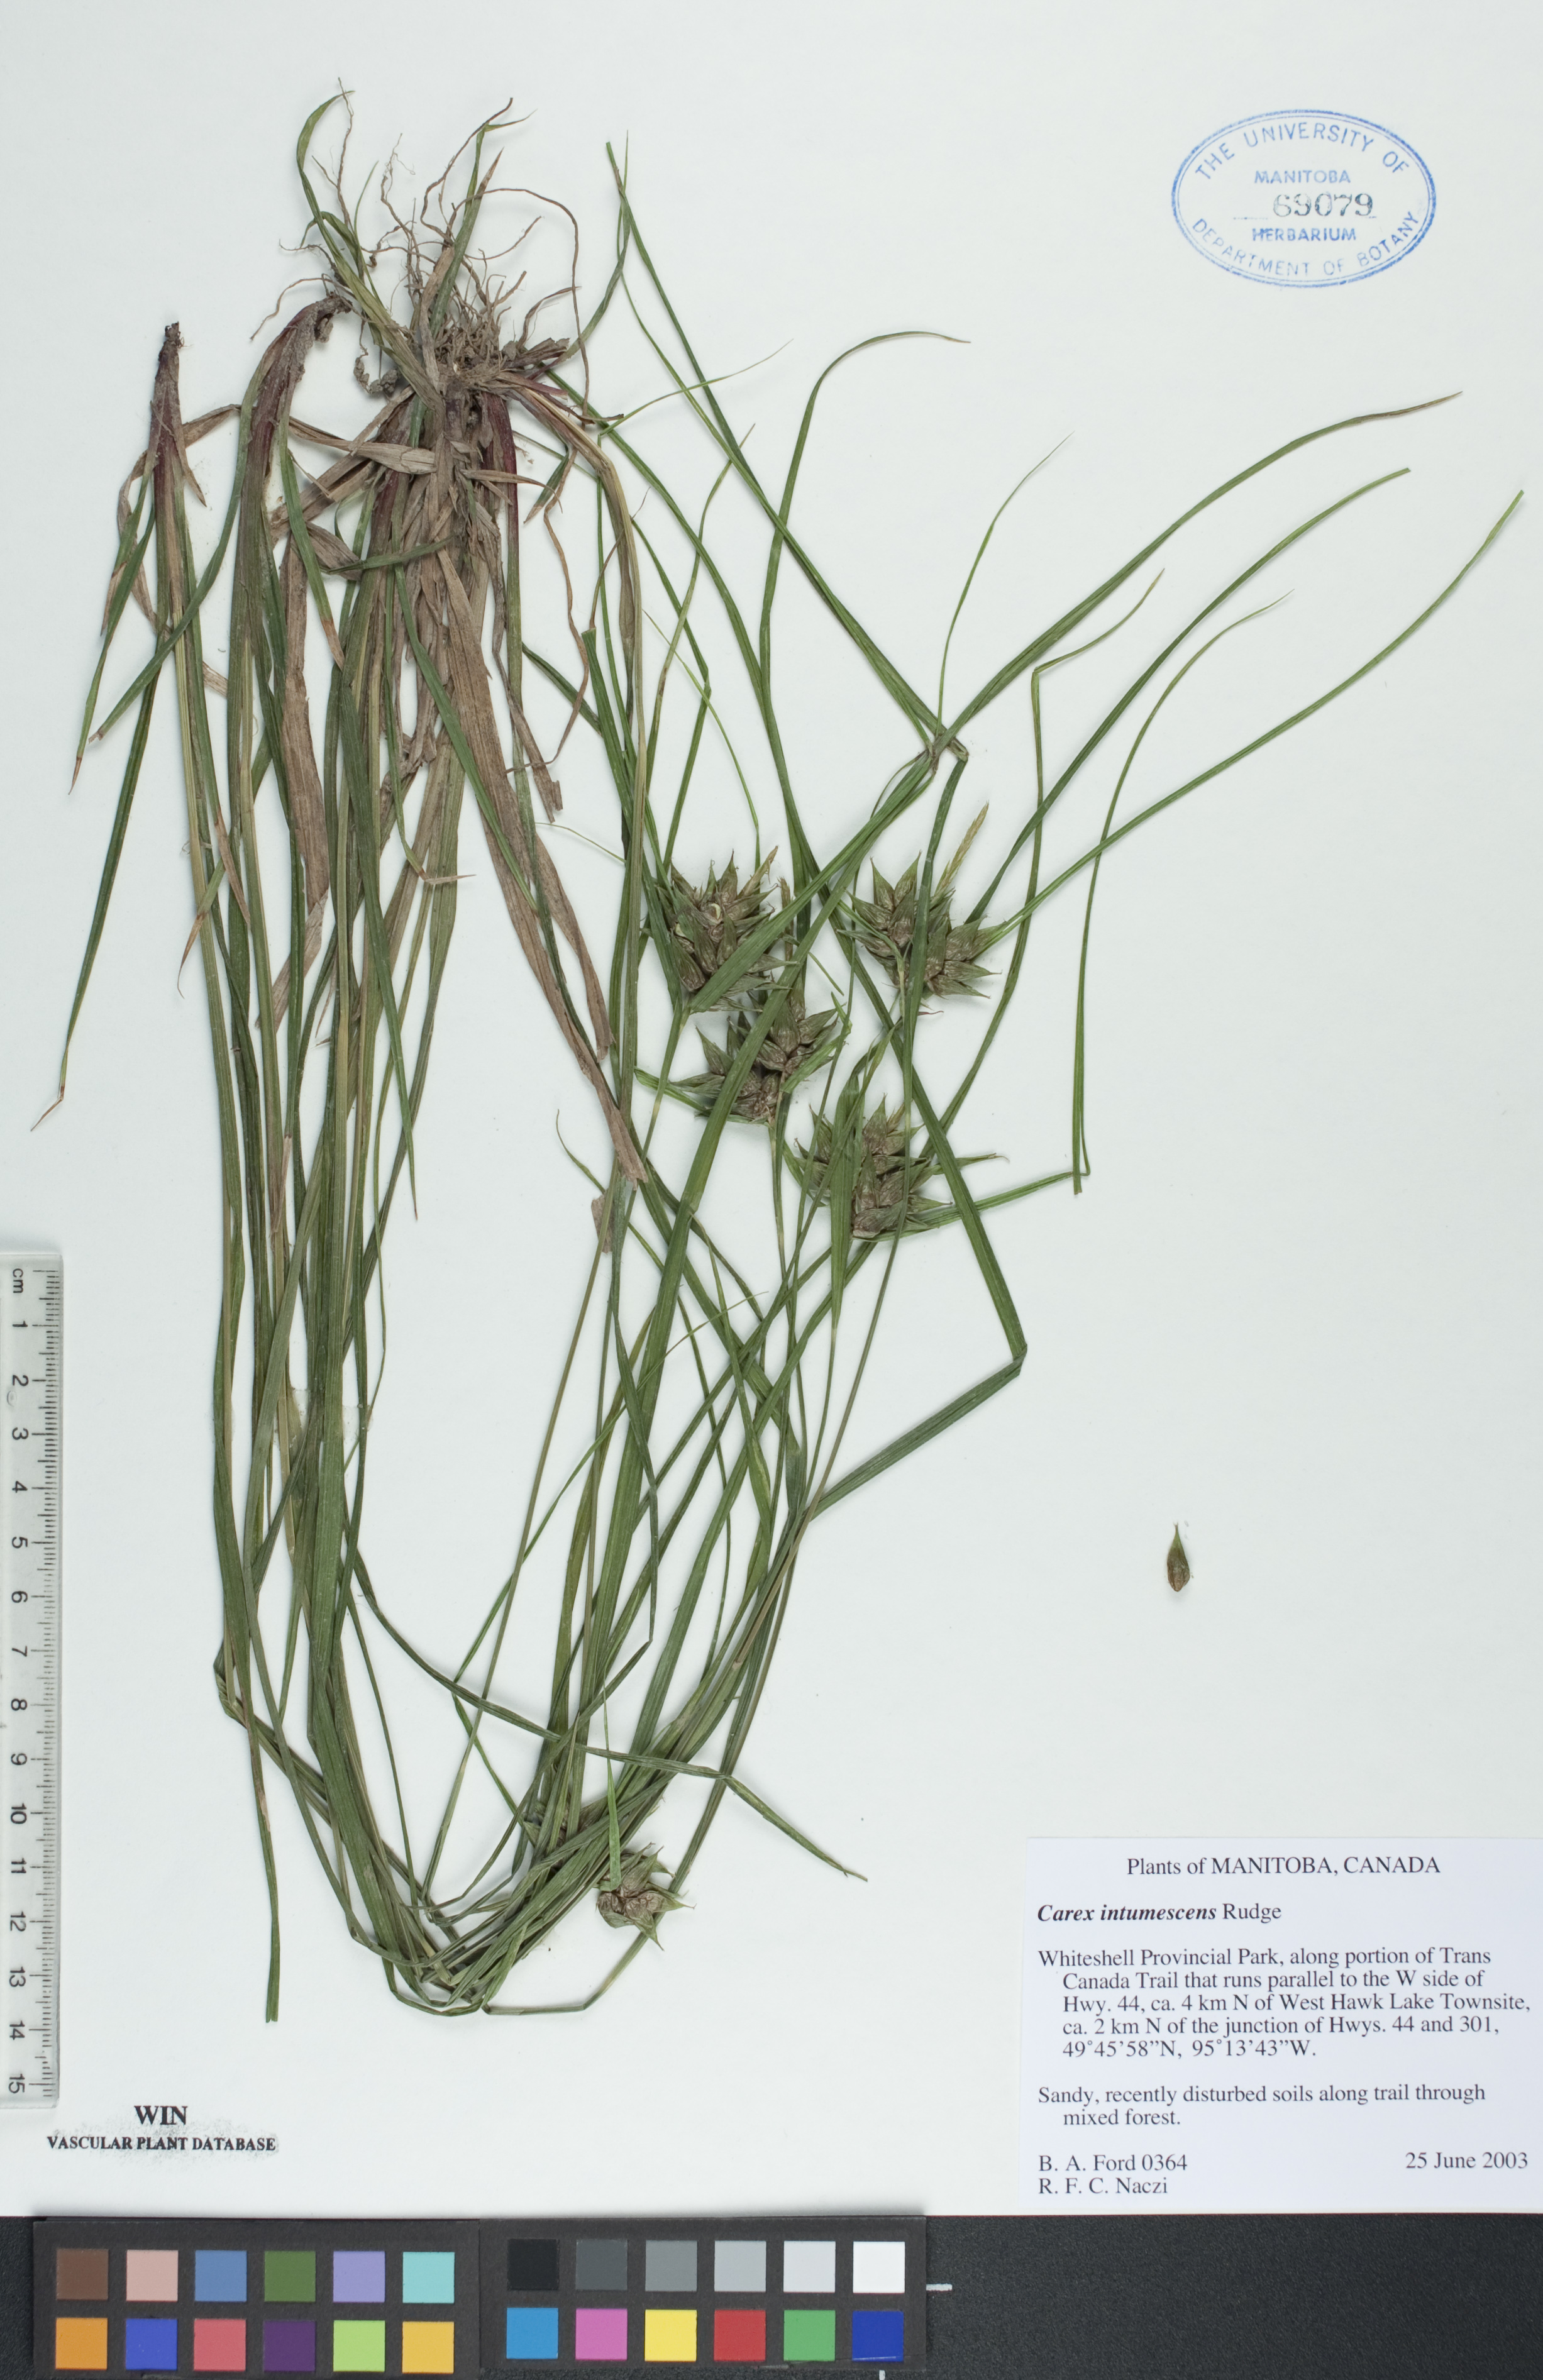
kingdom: Plantae
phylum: Tracheophyta
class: Liliopsida
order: Poales
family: Cyperaceae
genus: Carex
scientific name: Carex intumescens
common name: Greater bladder sedge
